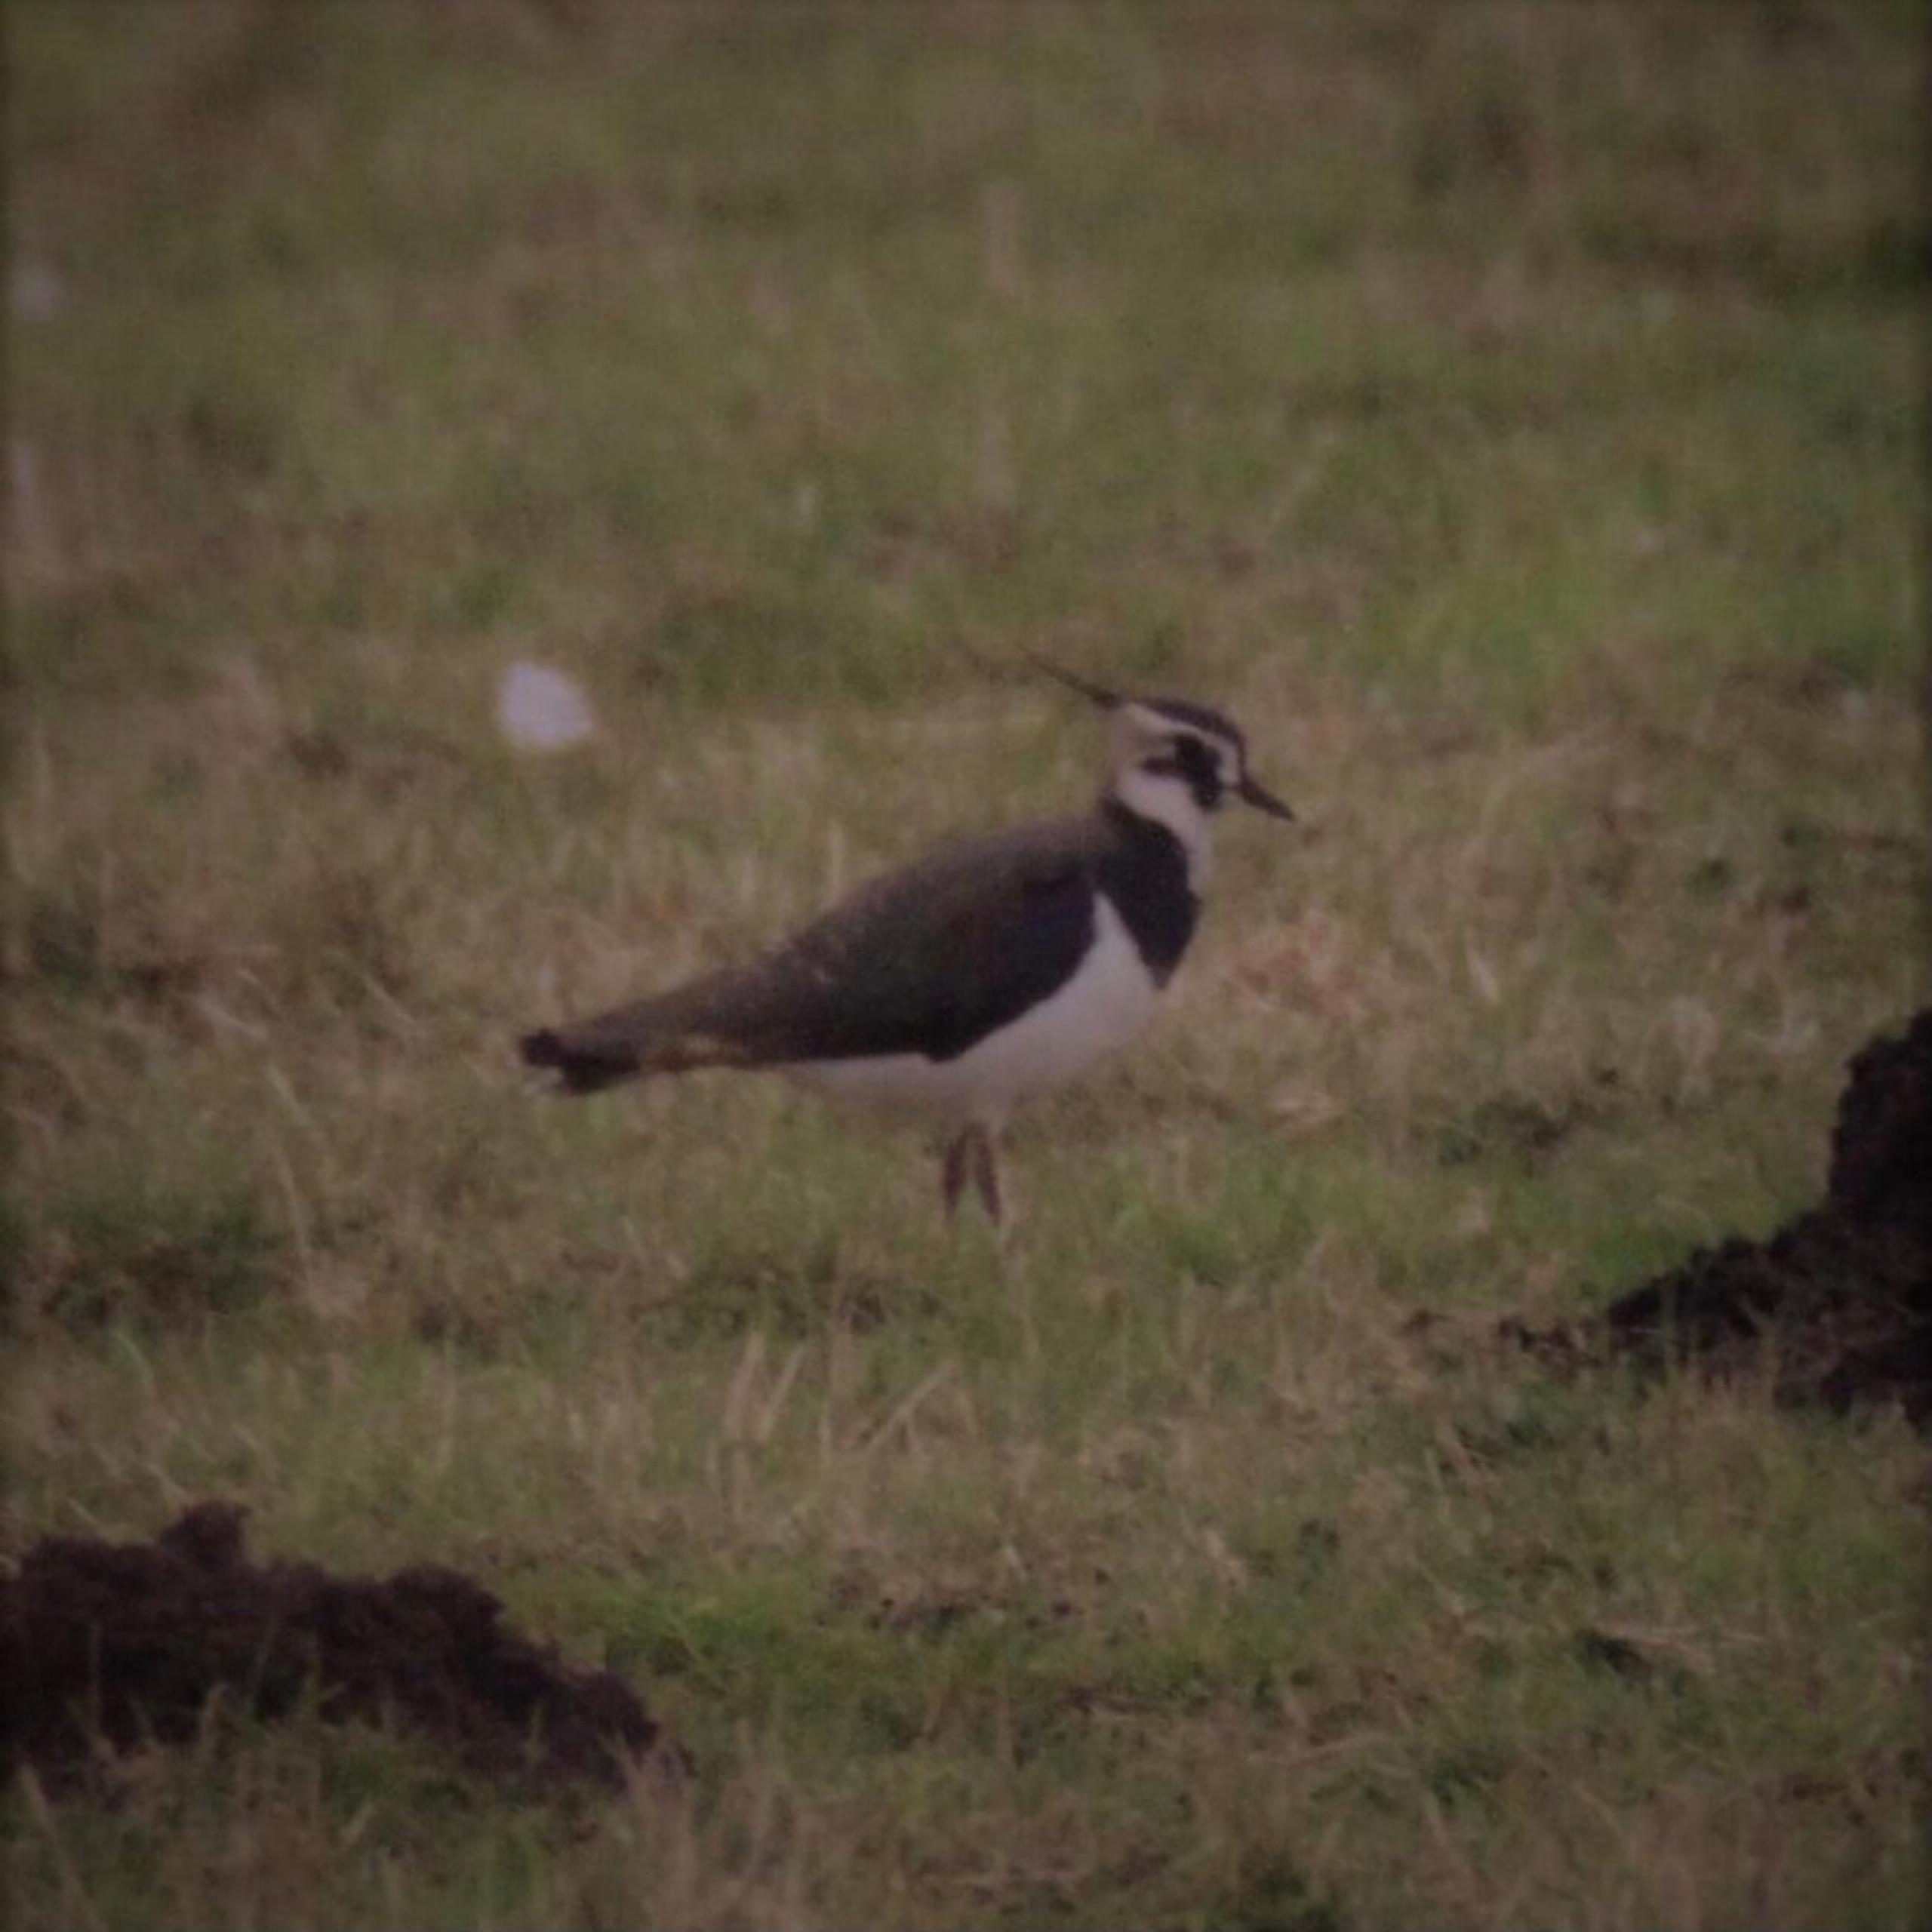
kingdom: Animalia
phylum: Chordata
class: Aves
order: Charadriiformes
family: Charadriidae
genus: Vanellus
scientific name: Vanellus vanellus
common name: Vibe
